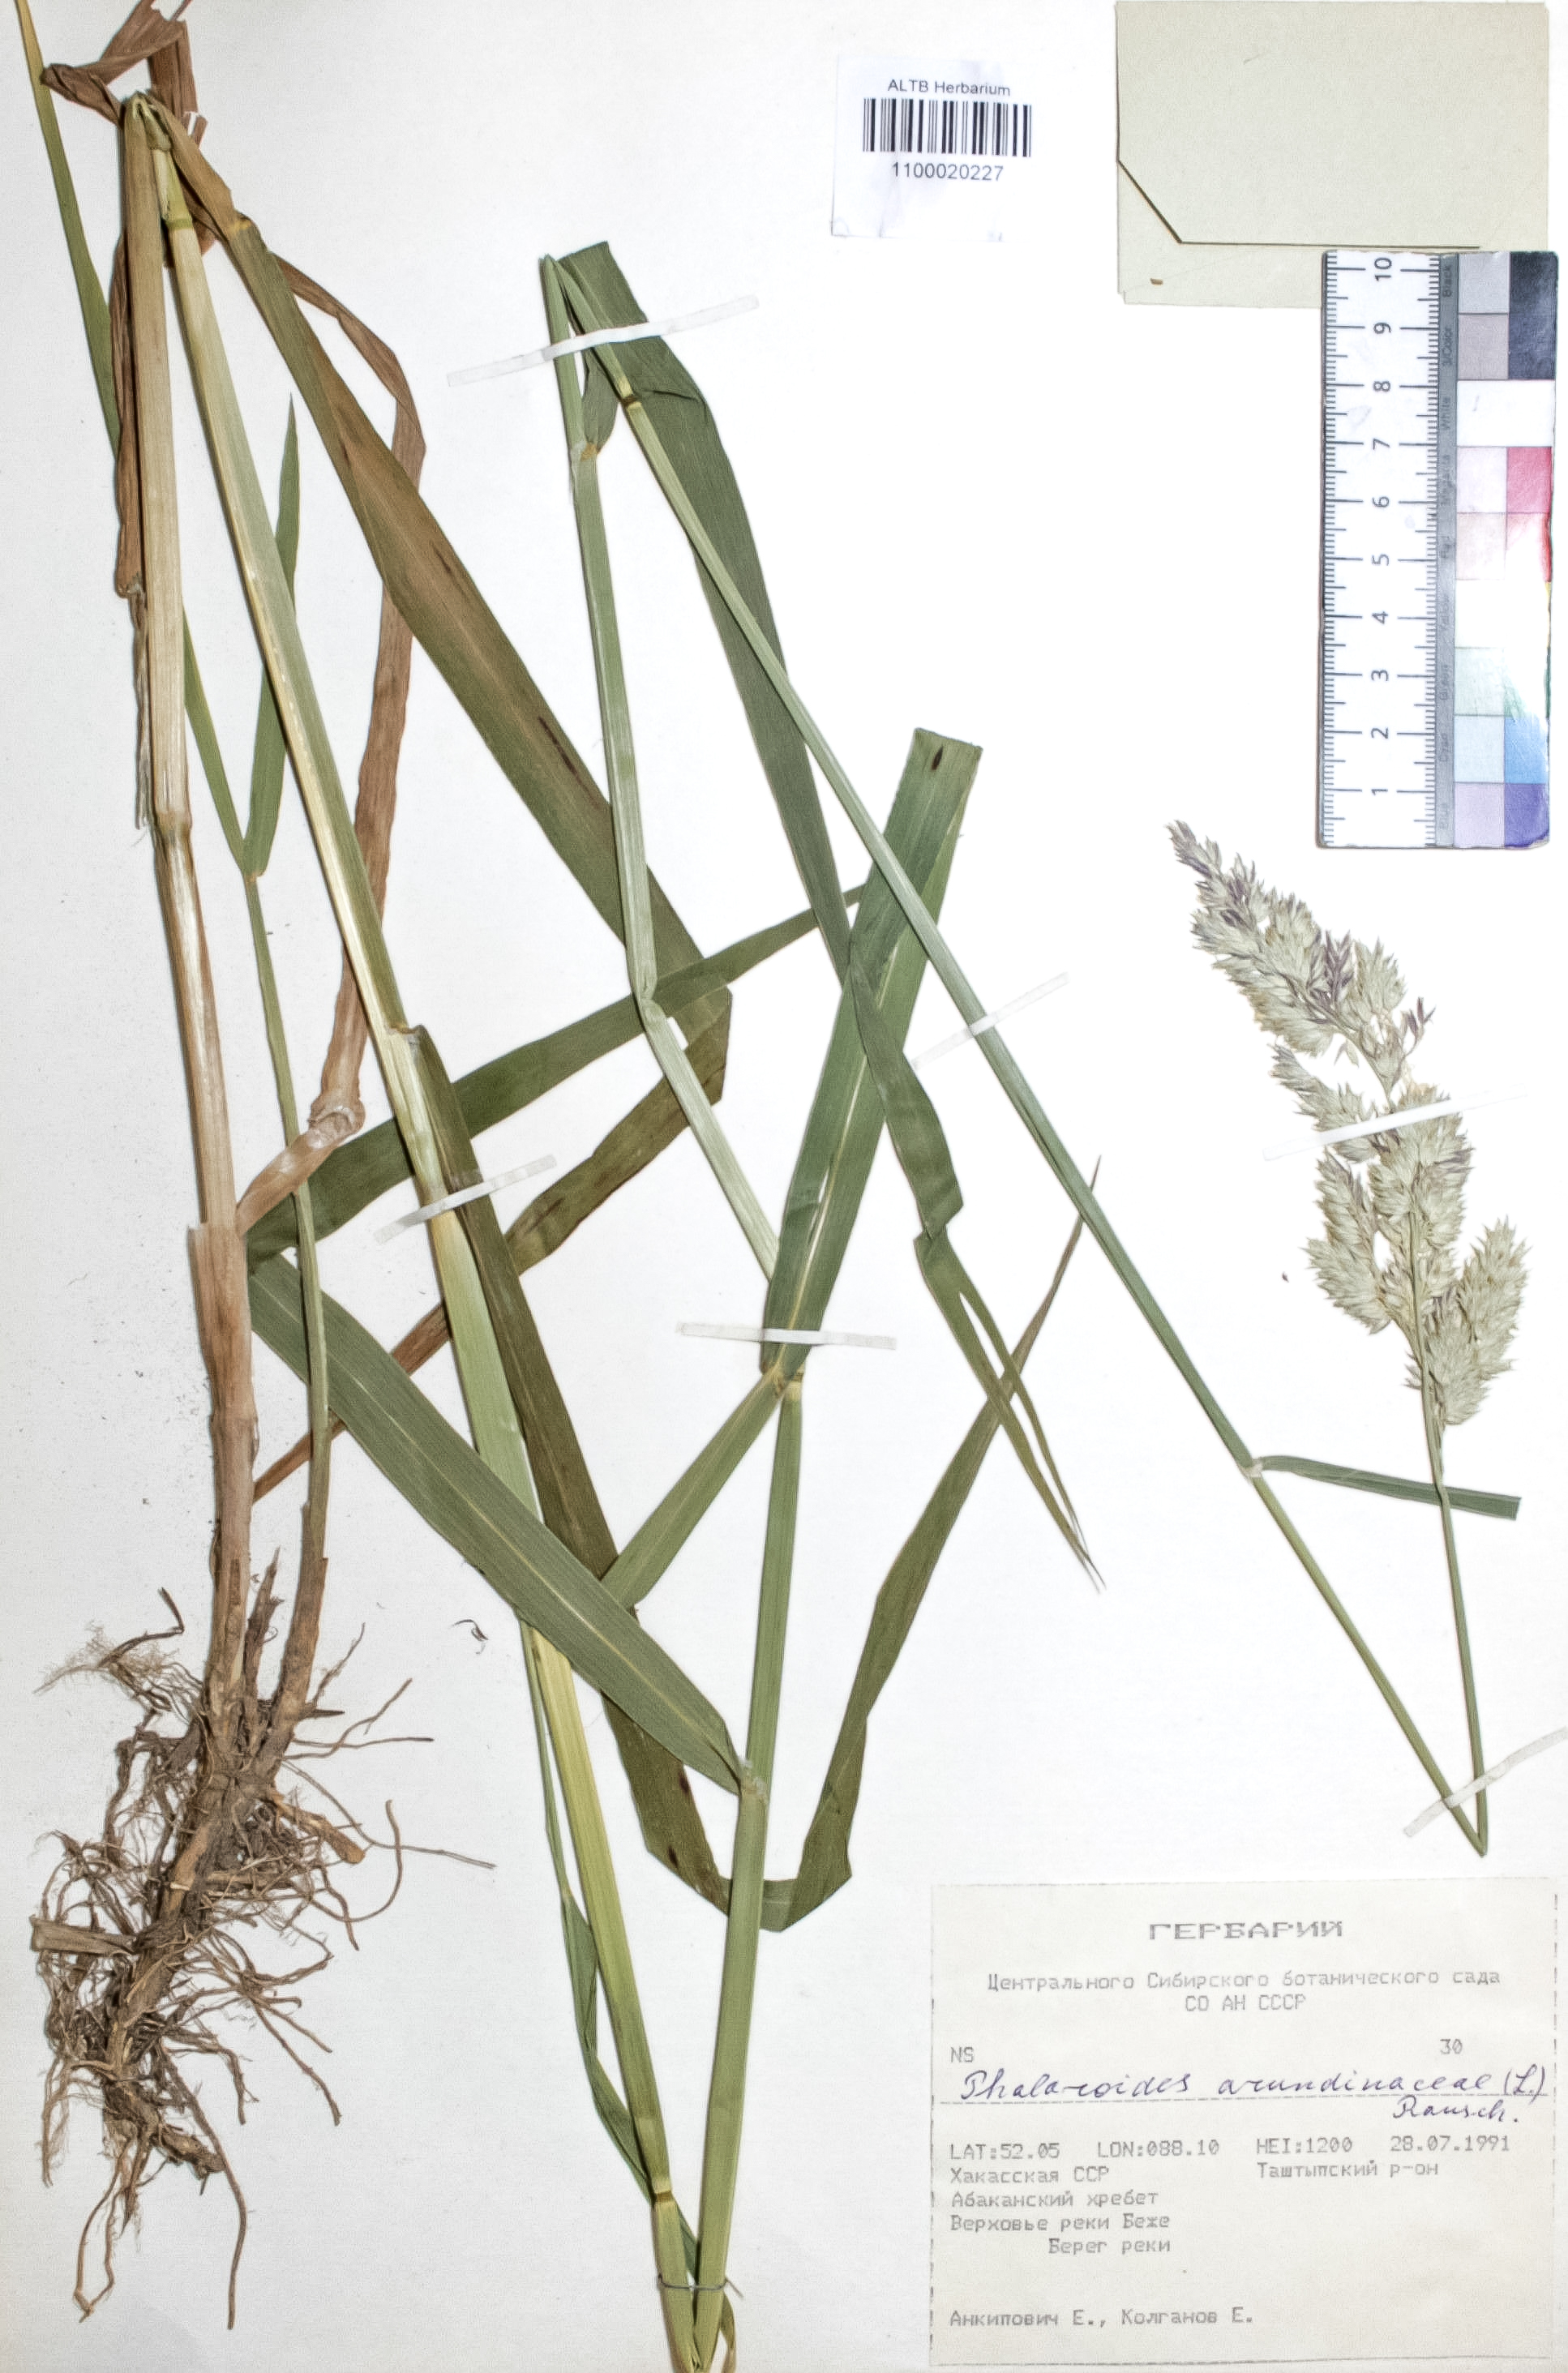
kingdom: Plantae
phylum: Tracheophyta
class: Liliopsida
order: Poales
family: Poaceae
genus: Phalaris
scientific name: Phalaris arundinacea
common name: Reed canary-grass
